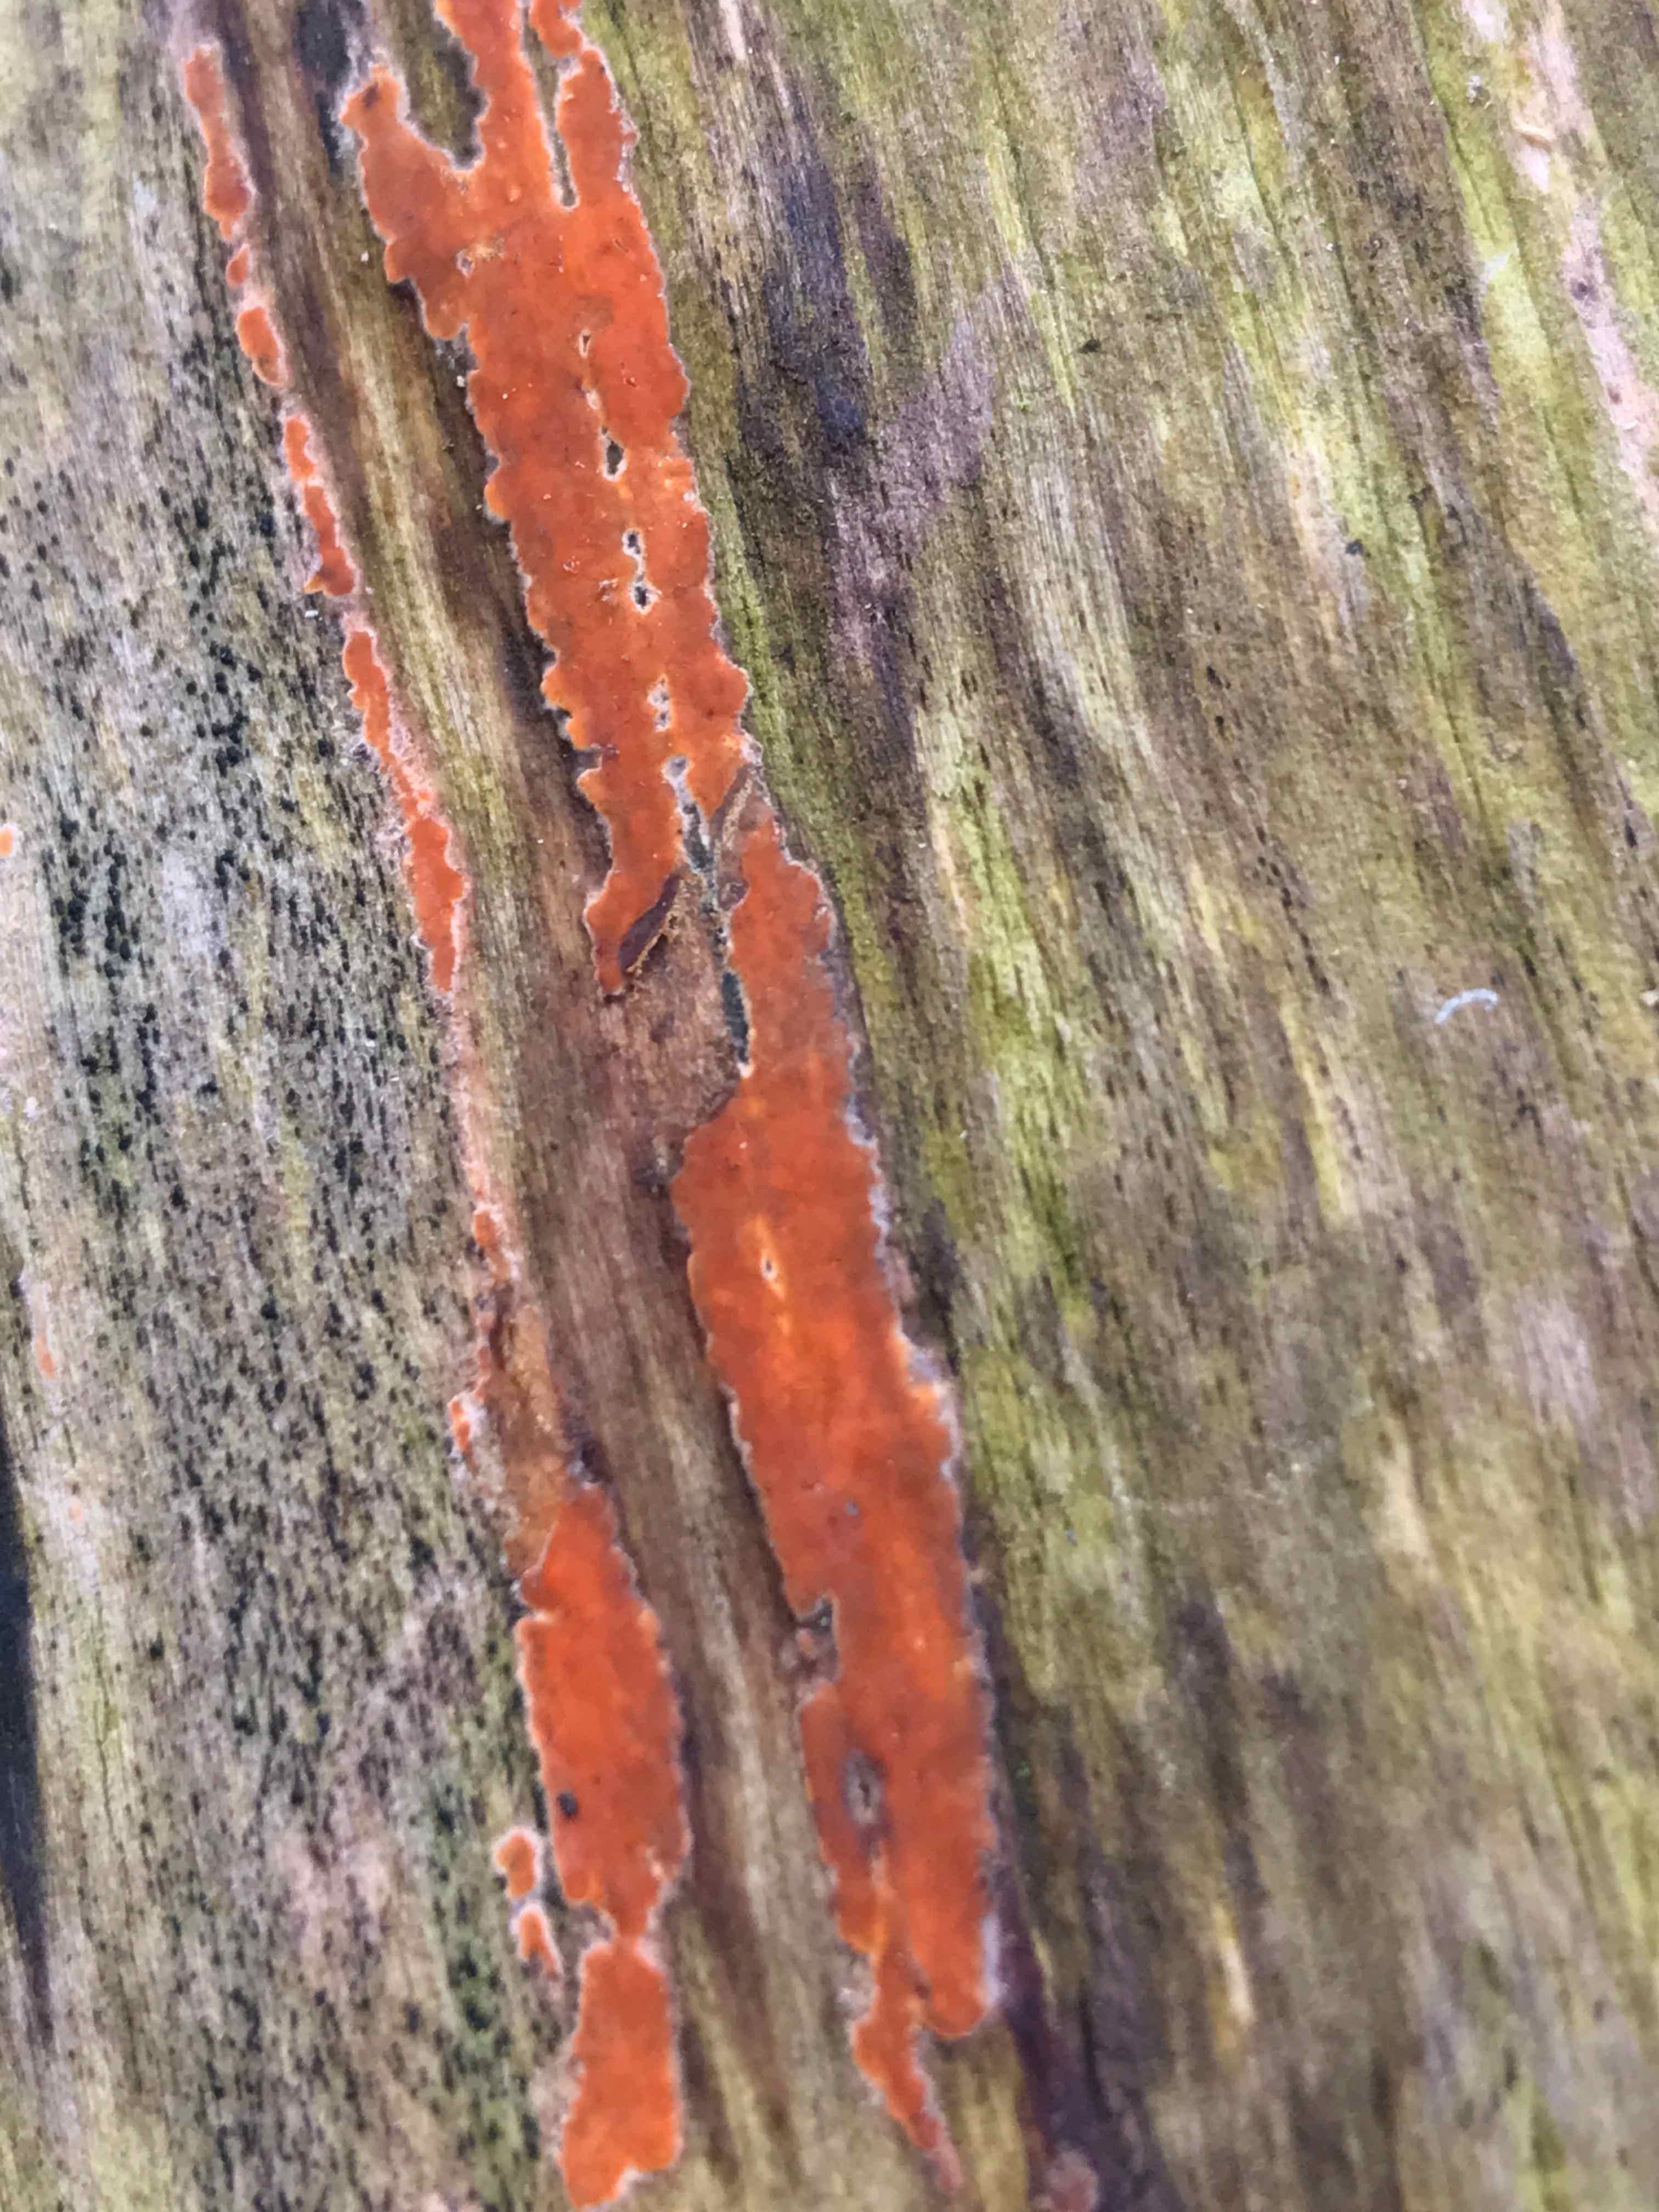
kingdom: Fungi
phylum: Basidiomycota
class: Agaricomycetes
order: Russulales
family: Peniophoraceae
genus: Peniophora
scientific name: Peniophora incarnata
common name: laksefarvet voksskind
